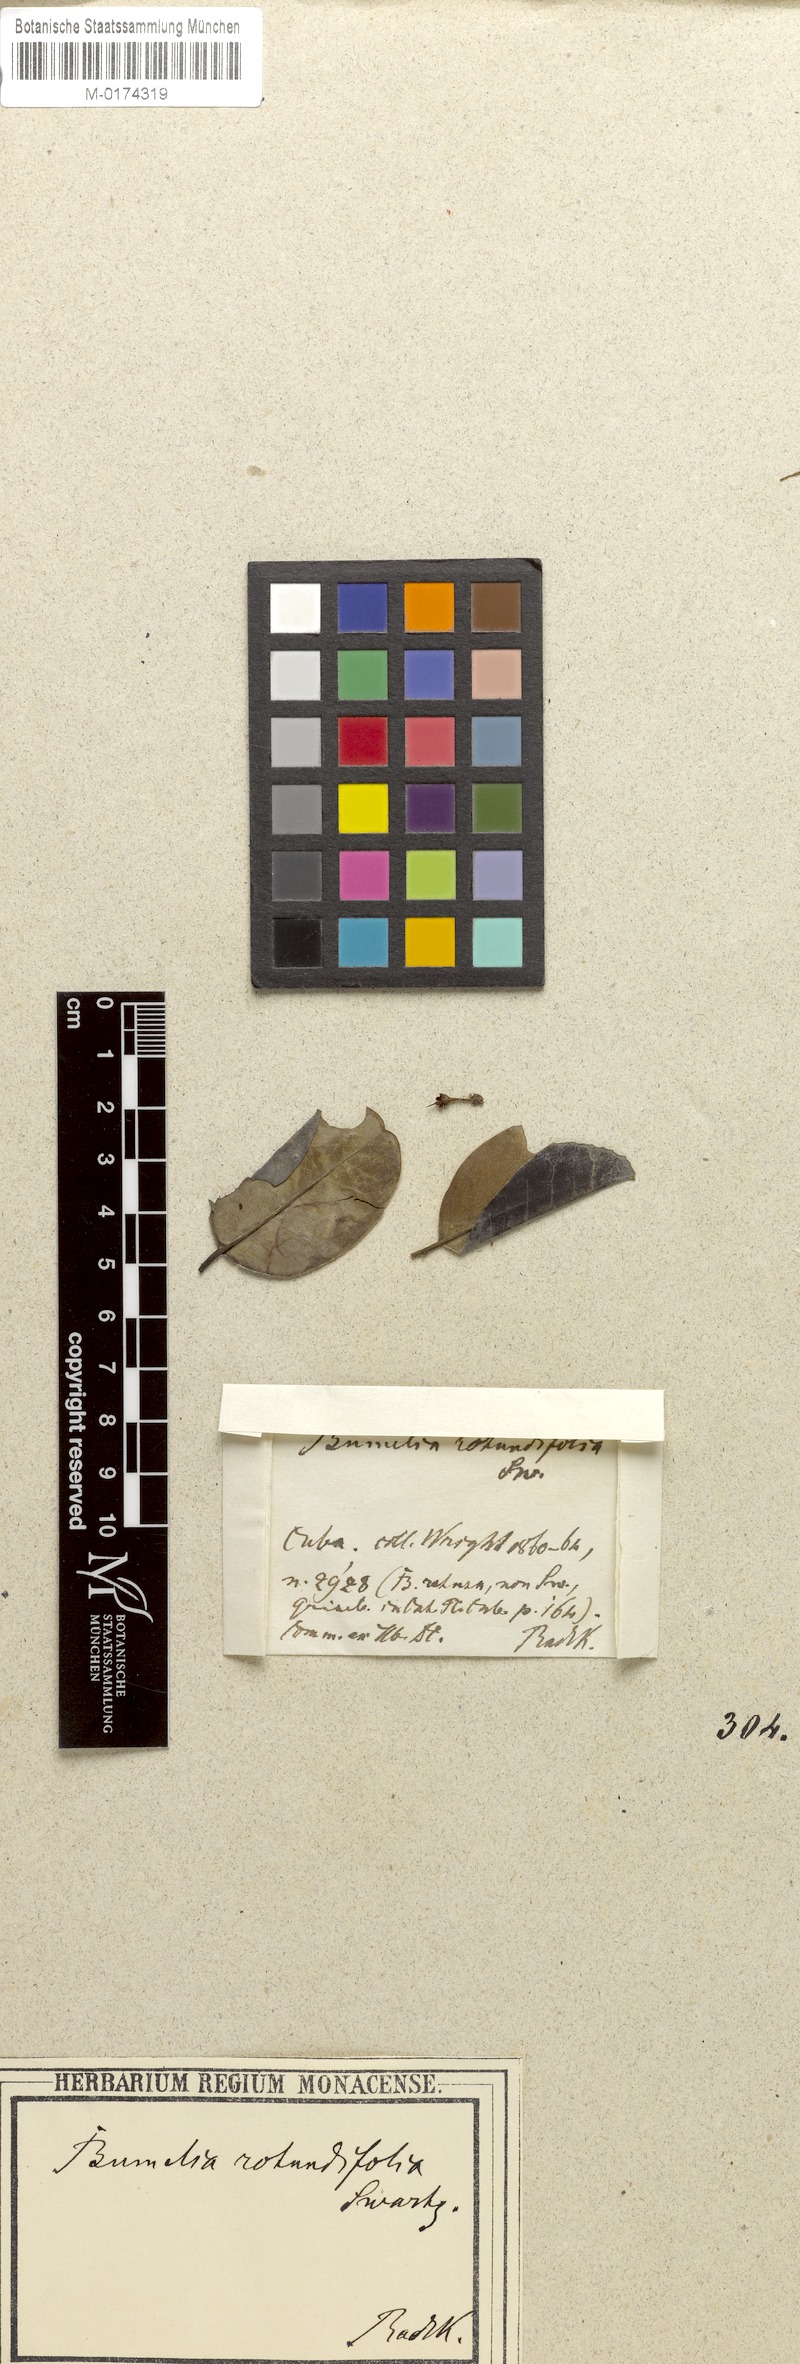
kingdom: Plantae
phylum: Tracheophyta
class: Magnoliopsida
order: Ericales
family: Sapotaceae
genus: Sideroxylon
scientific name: Sideroxylon rotundifolium
